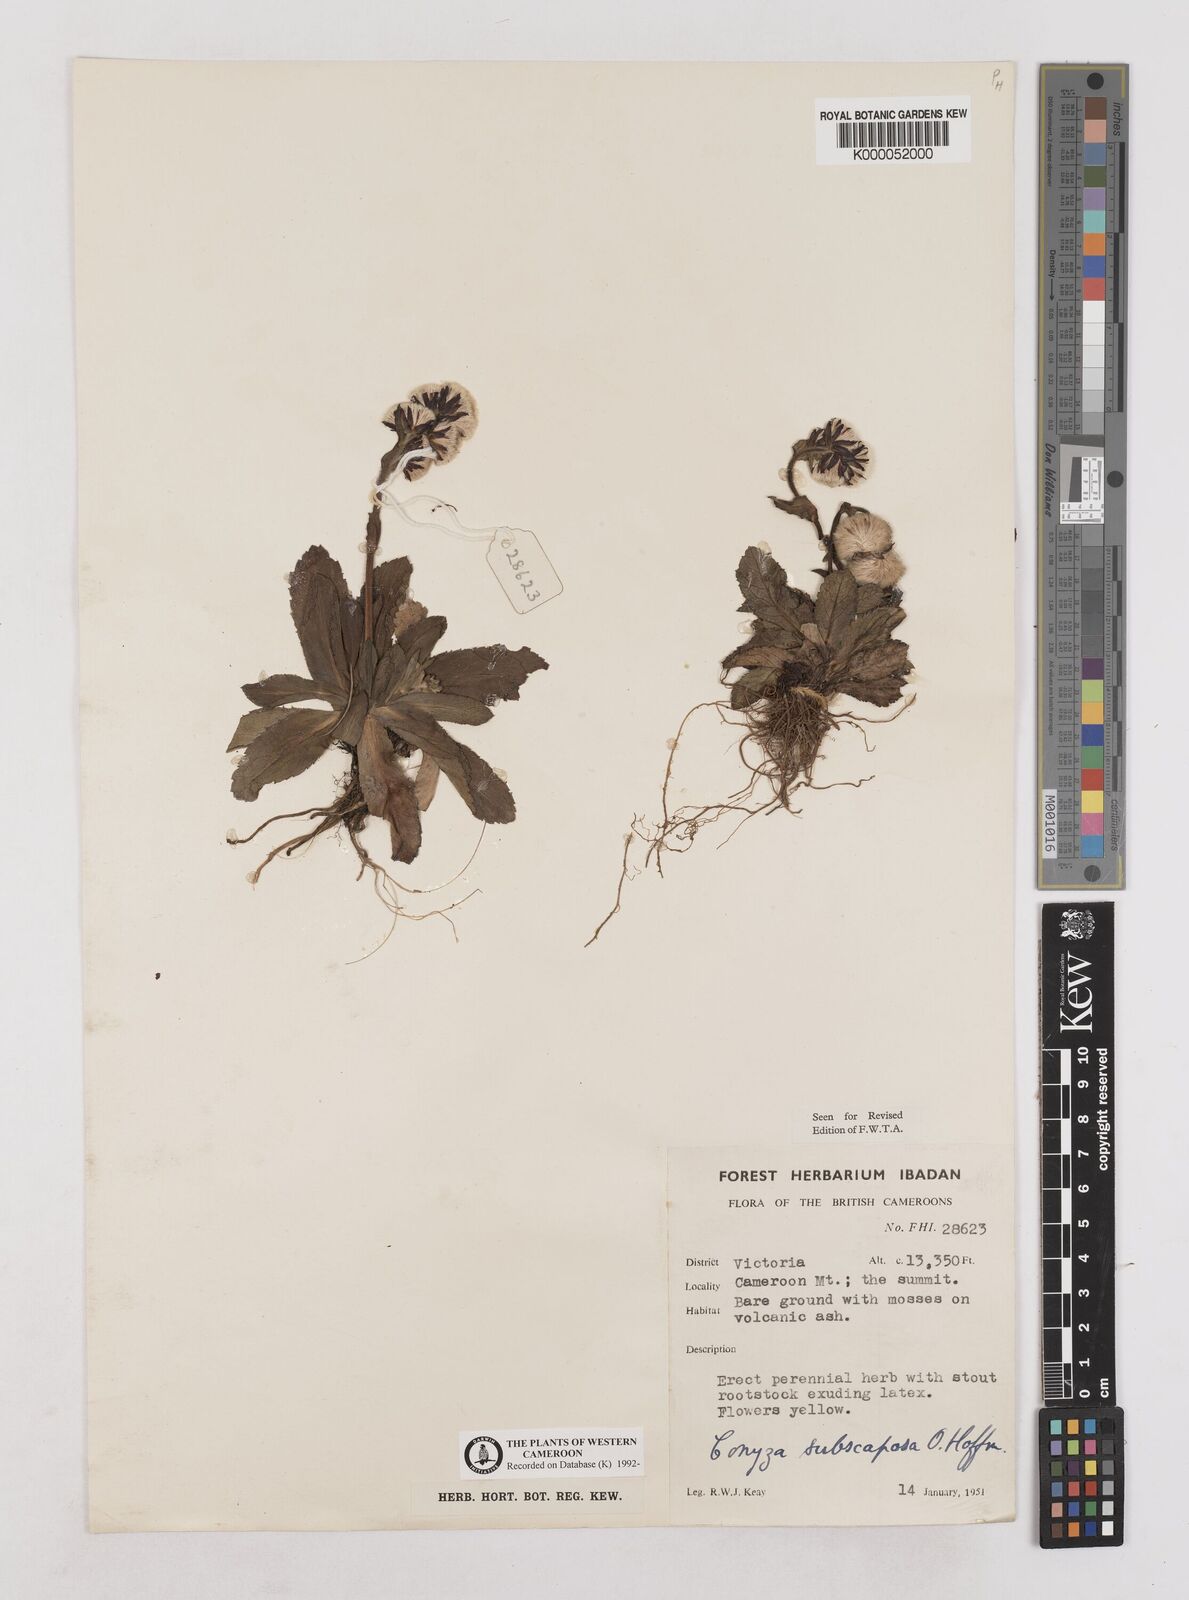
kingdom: Plantae
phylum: Tracheophyta
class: Magnoliopsida
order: Asterales
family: Asteraceae
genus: Eschenbachia
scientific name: Eschenbachia subscaposa
